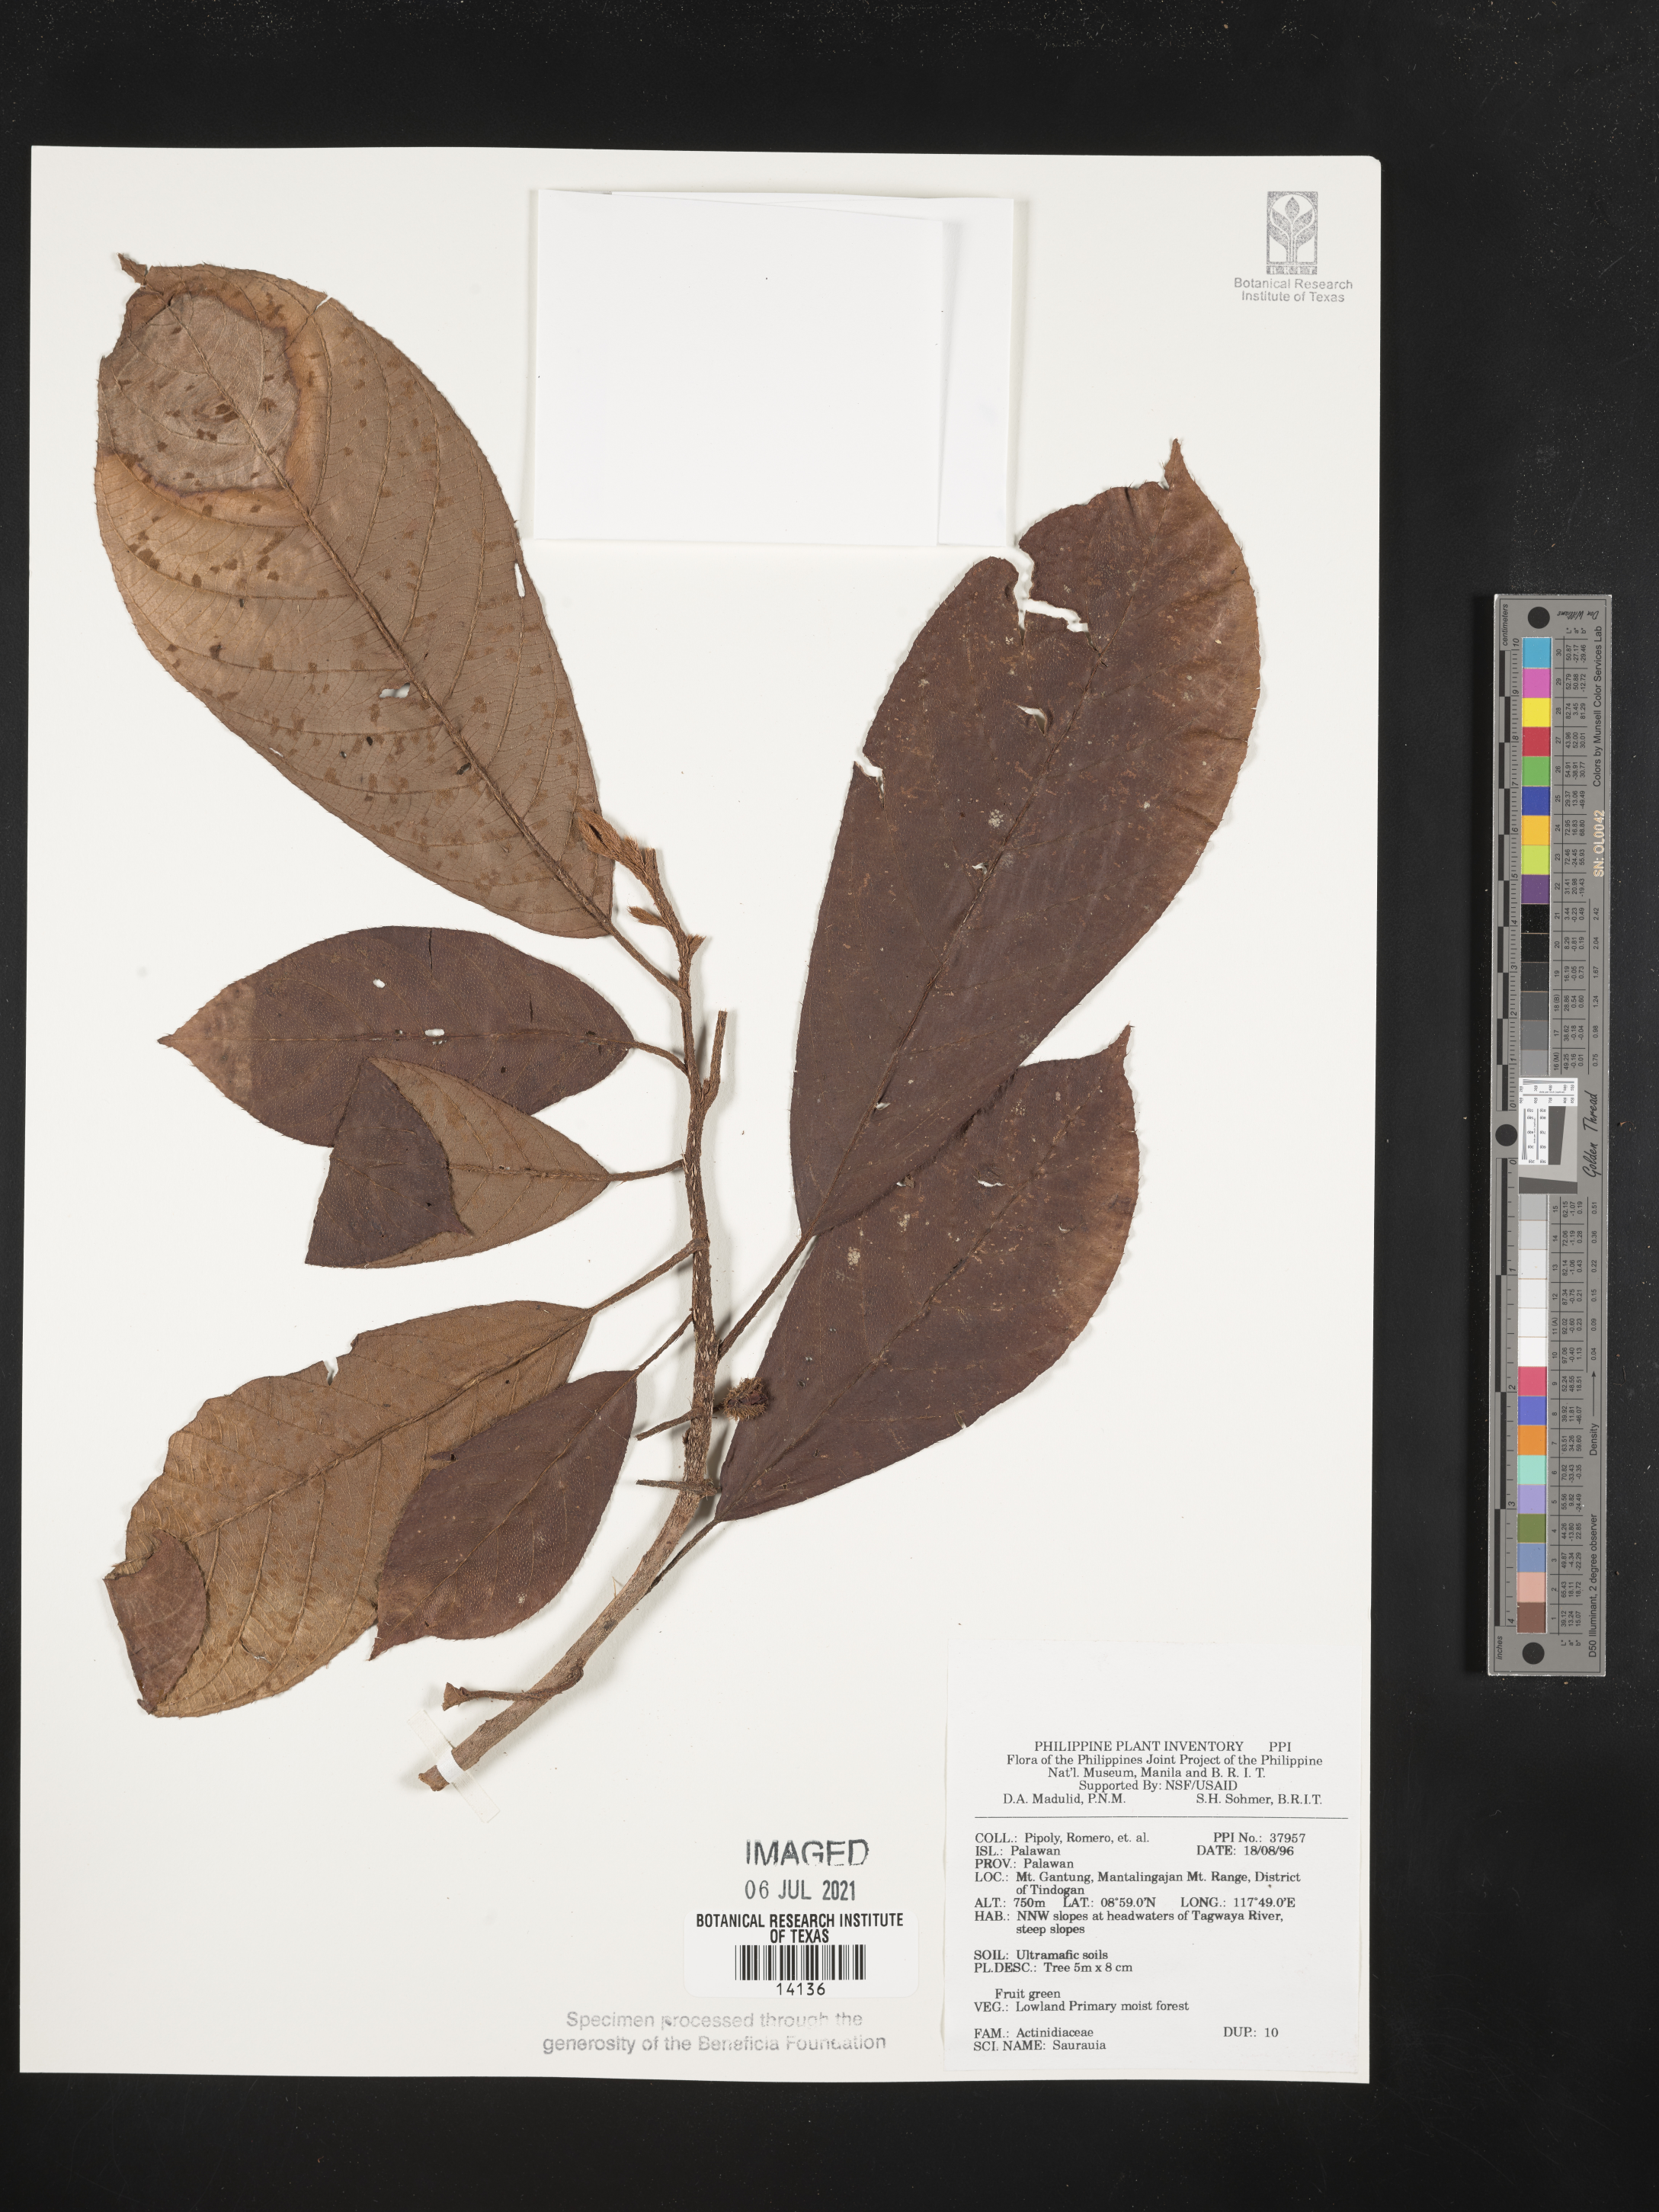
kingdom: Plantae
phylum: Tracheophyta
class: Magnoliopsida
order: Ericales
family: Actinidiaceae
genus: Saurauia
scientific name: Saurauia
